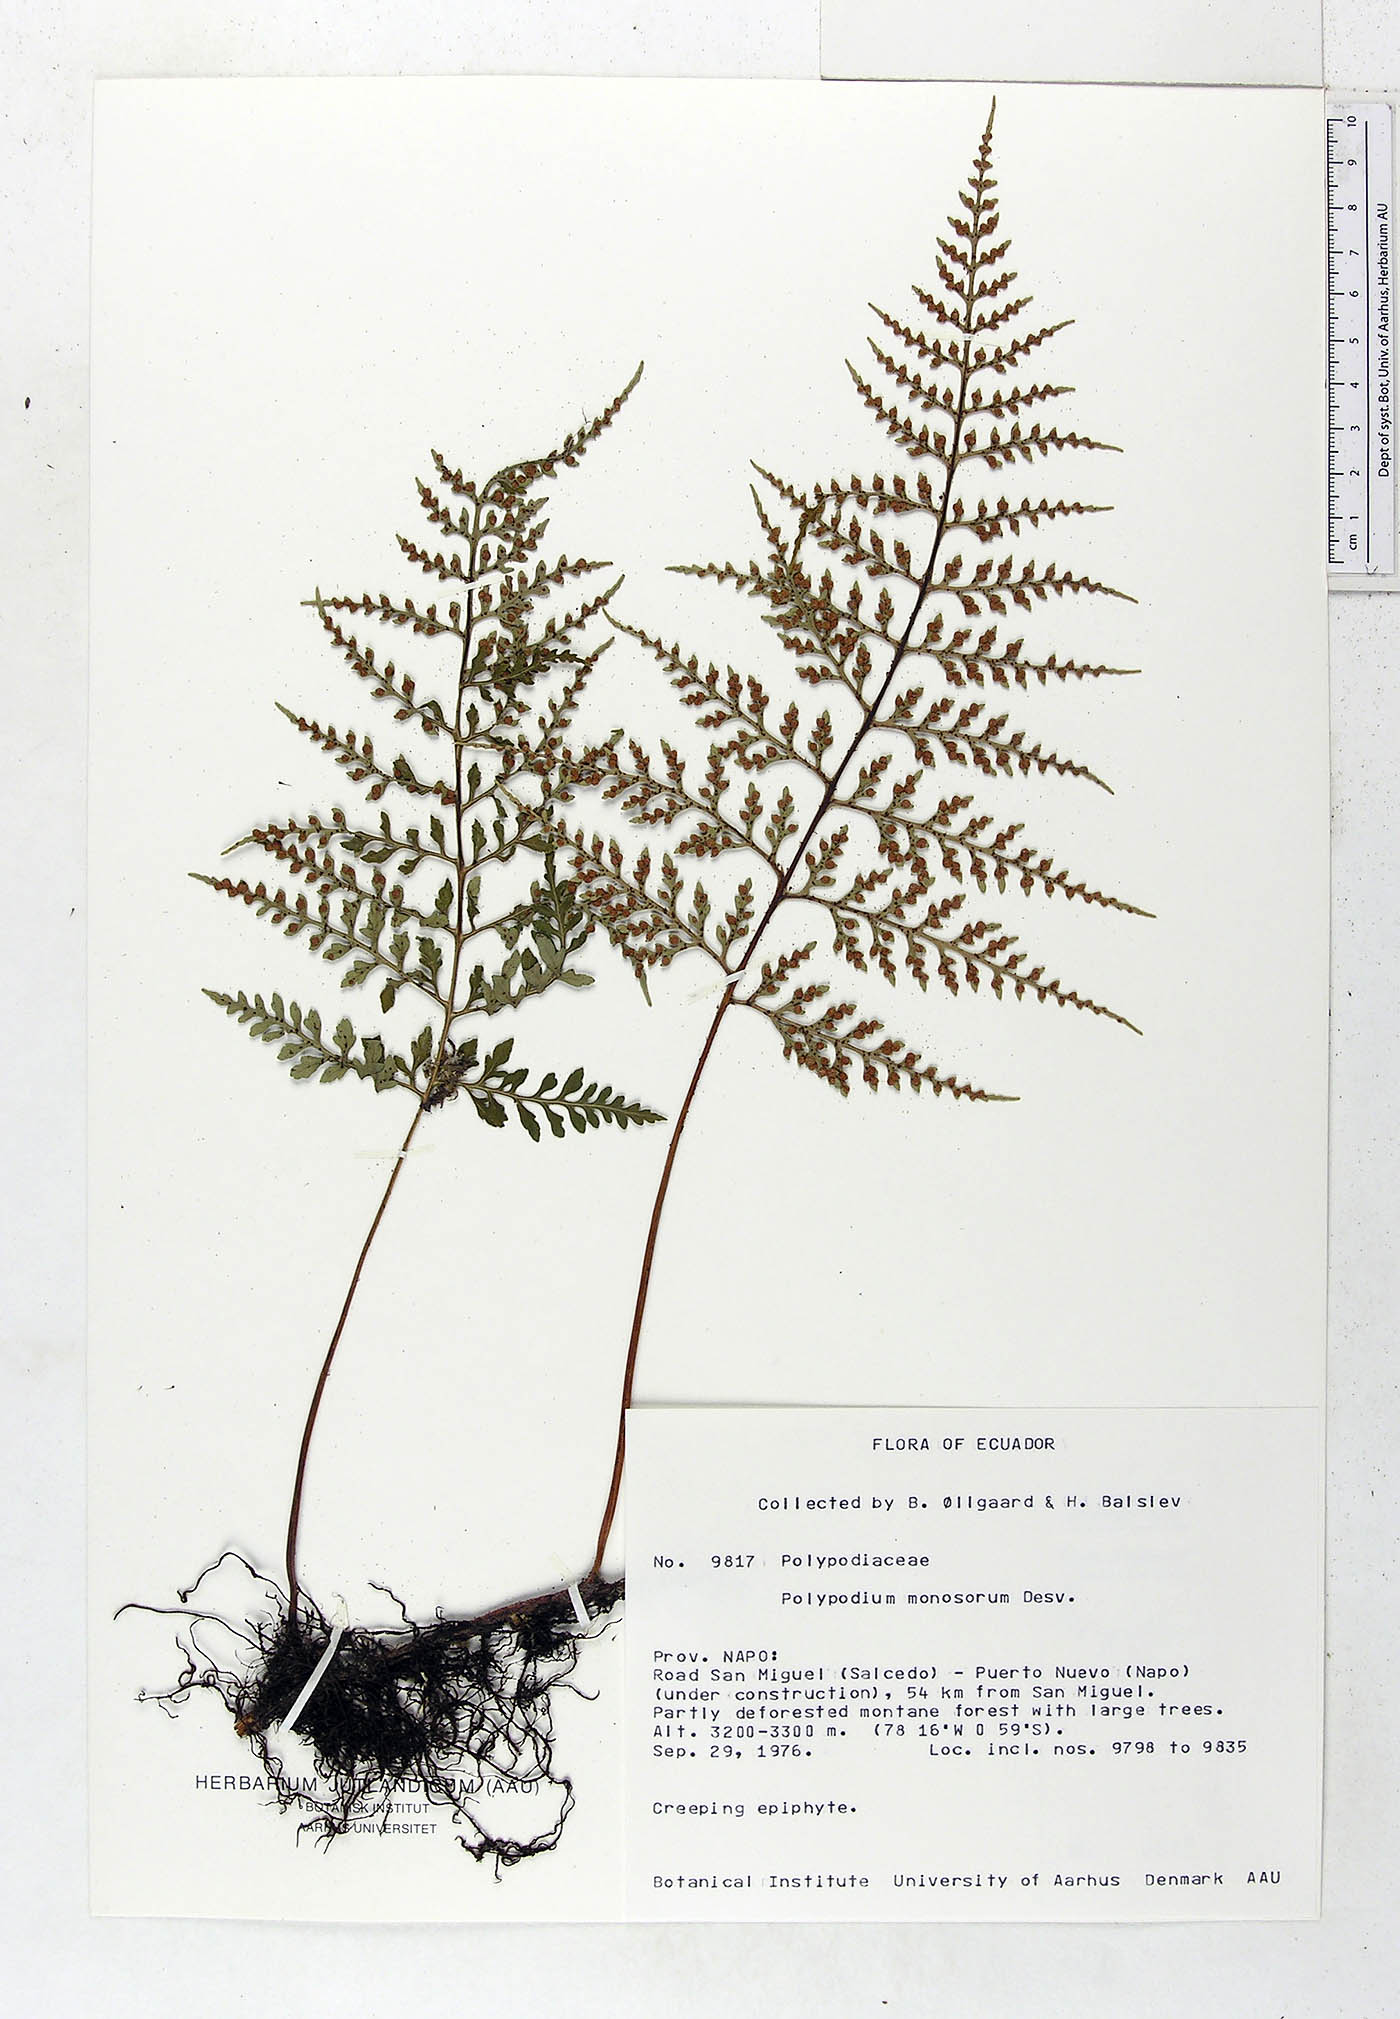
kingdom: Plantae
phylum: Tracheophyta
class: Polypodiopsida
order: Polypodiales
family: Polypodiaceae
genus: Pleopeltis
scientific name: Pleopeltis monosora
